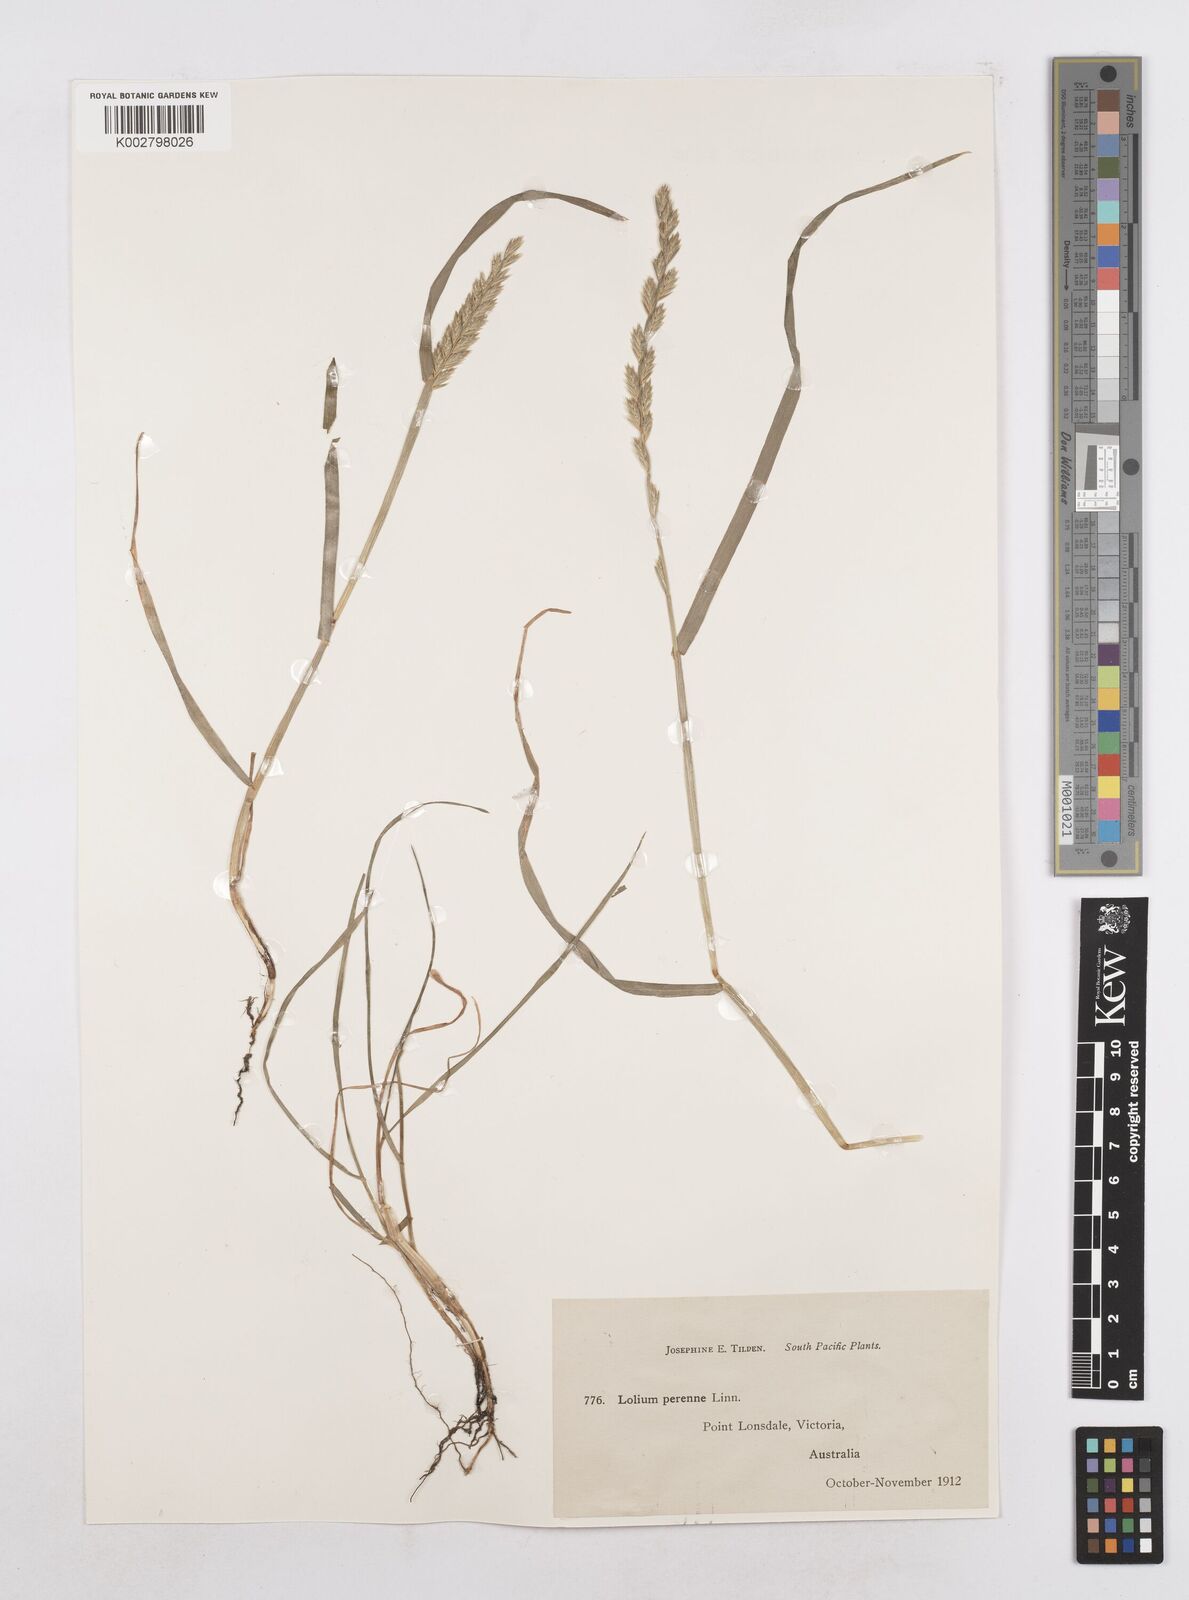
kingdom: Plantae
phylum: Tracheophyta
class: Liliopsida
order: Poales
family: Poaceae
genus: Lolium
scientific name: Lolium perenne
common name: Perennial ryegrass
